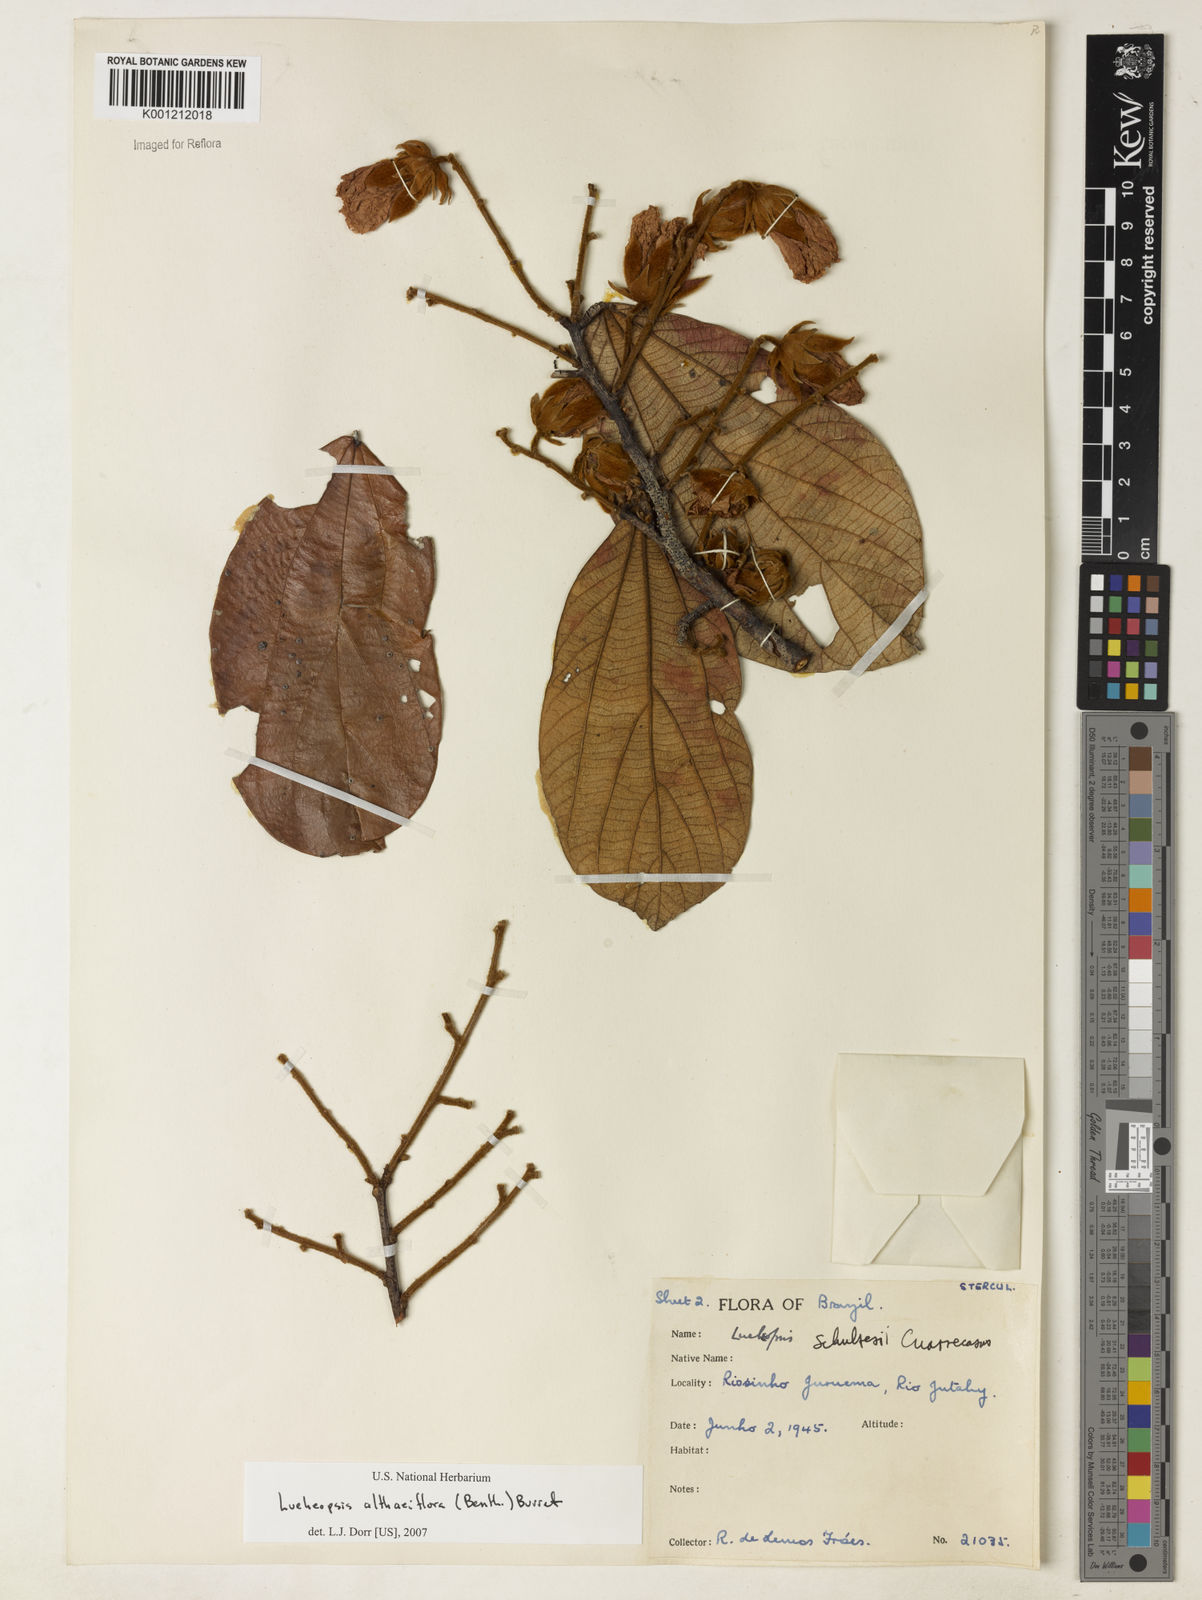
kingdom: Plantae
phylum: Tracheophyta
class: Magnoliopsida
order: Malvales
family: Malvaceae
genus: Lueheopsis
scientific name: Lueheopsis althaeiflora
